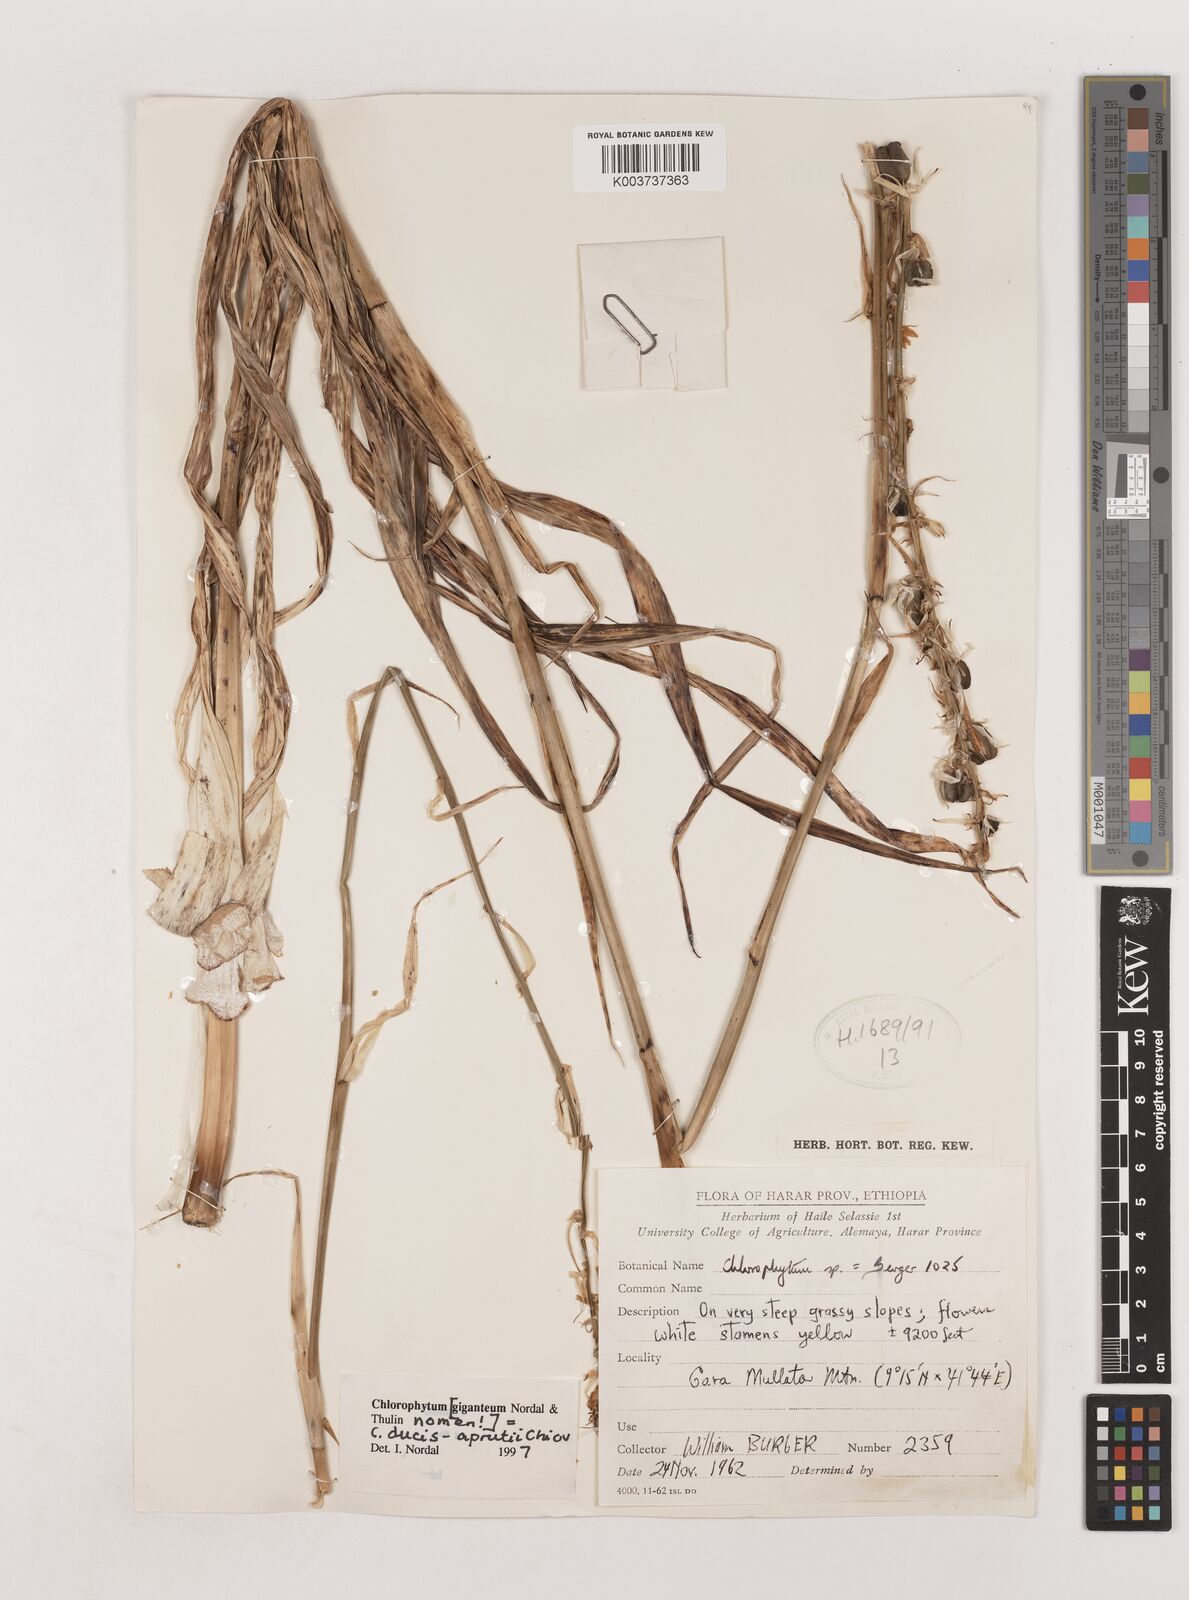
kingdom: Plantae
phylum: Tracheophyta
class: Liliopsida
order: Asparagales
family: Asparagaceae
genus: Chlorophytum
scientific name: Chlorophytum ducis-aprutii
